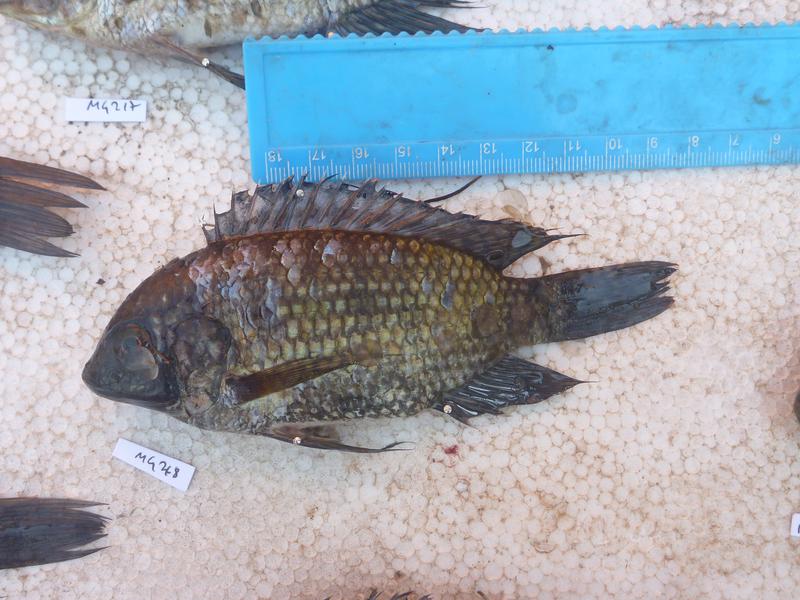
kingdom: Animalia
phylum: Chordata
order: Perciformes
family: Cichlidae
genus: Oreochromis
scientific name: Oreochromis leucostictus
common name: Blue spotted tilapia
